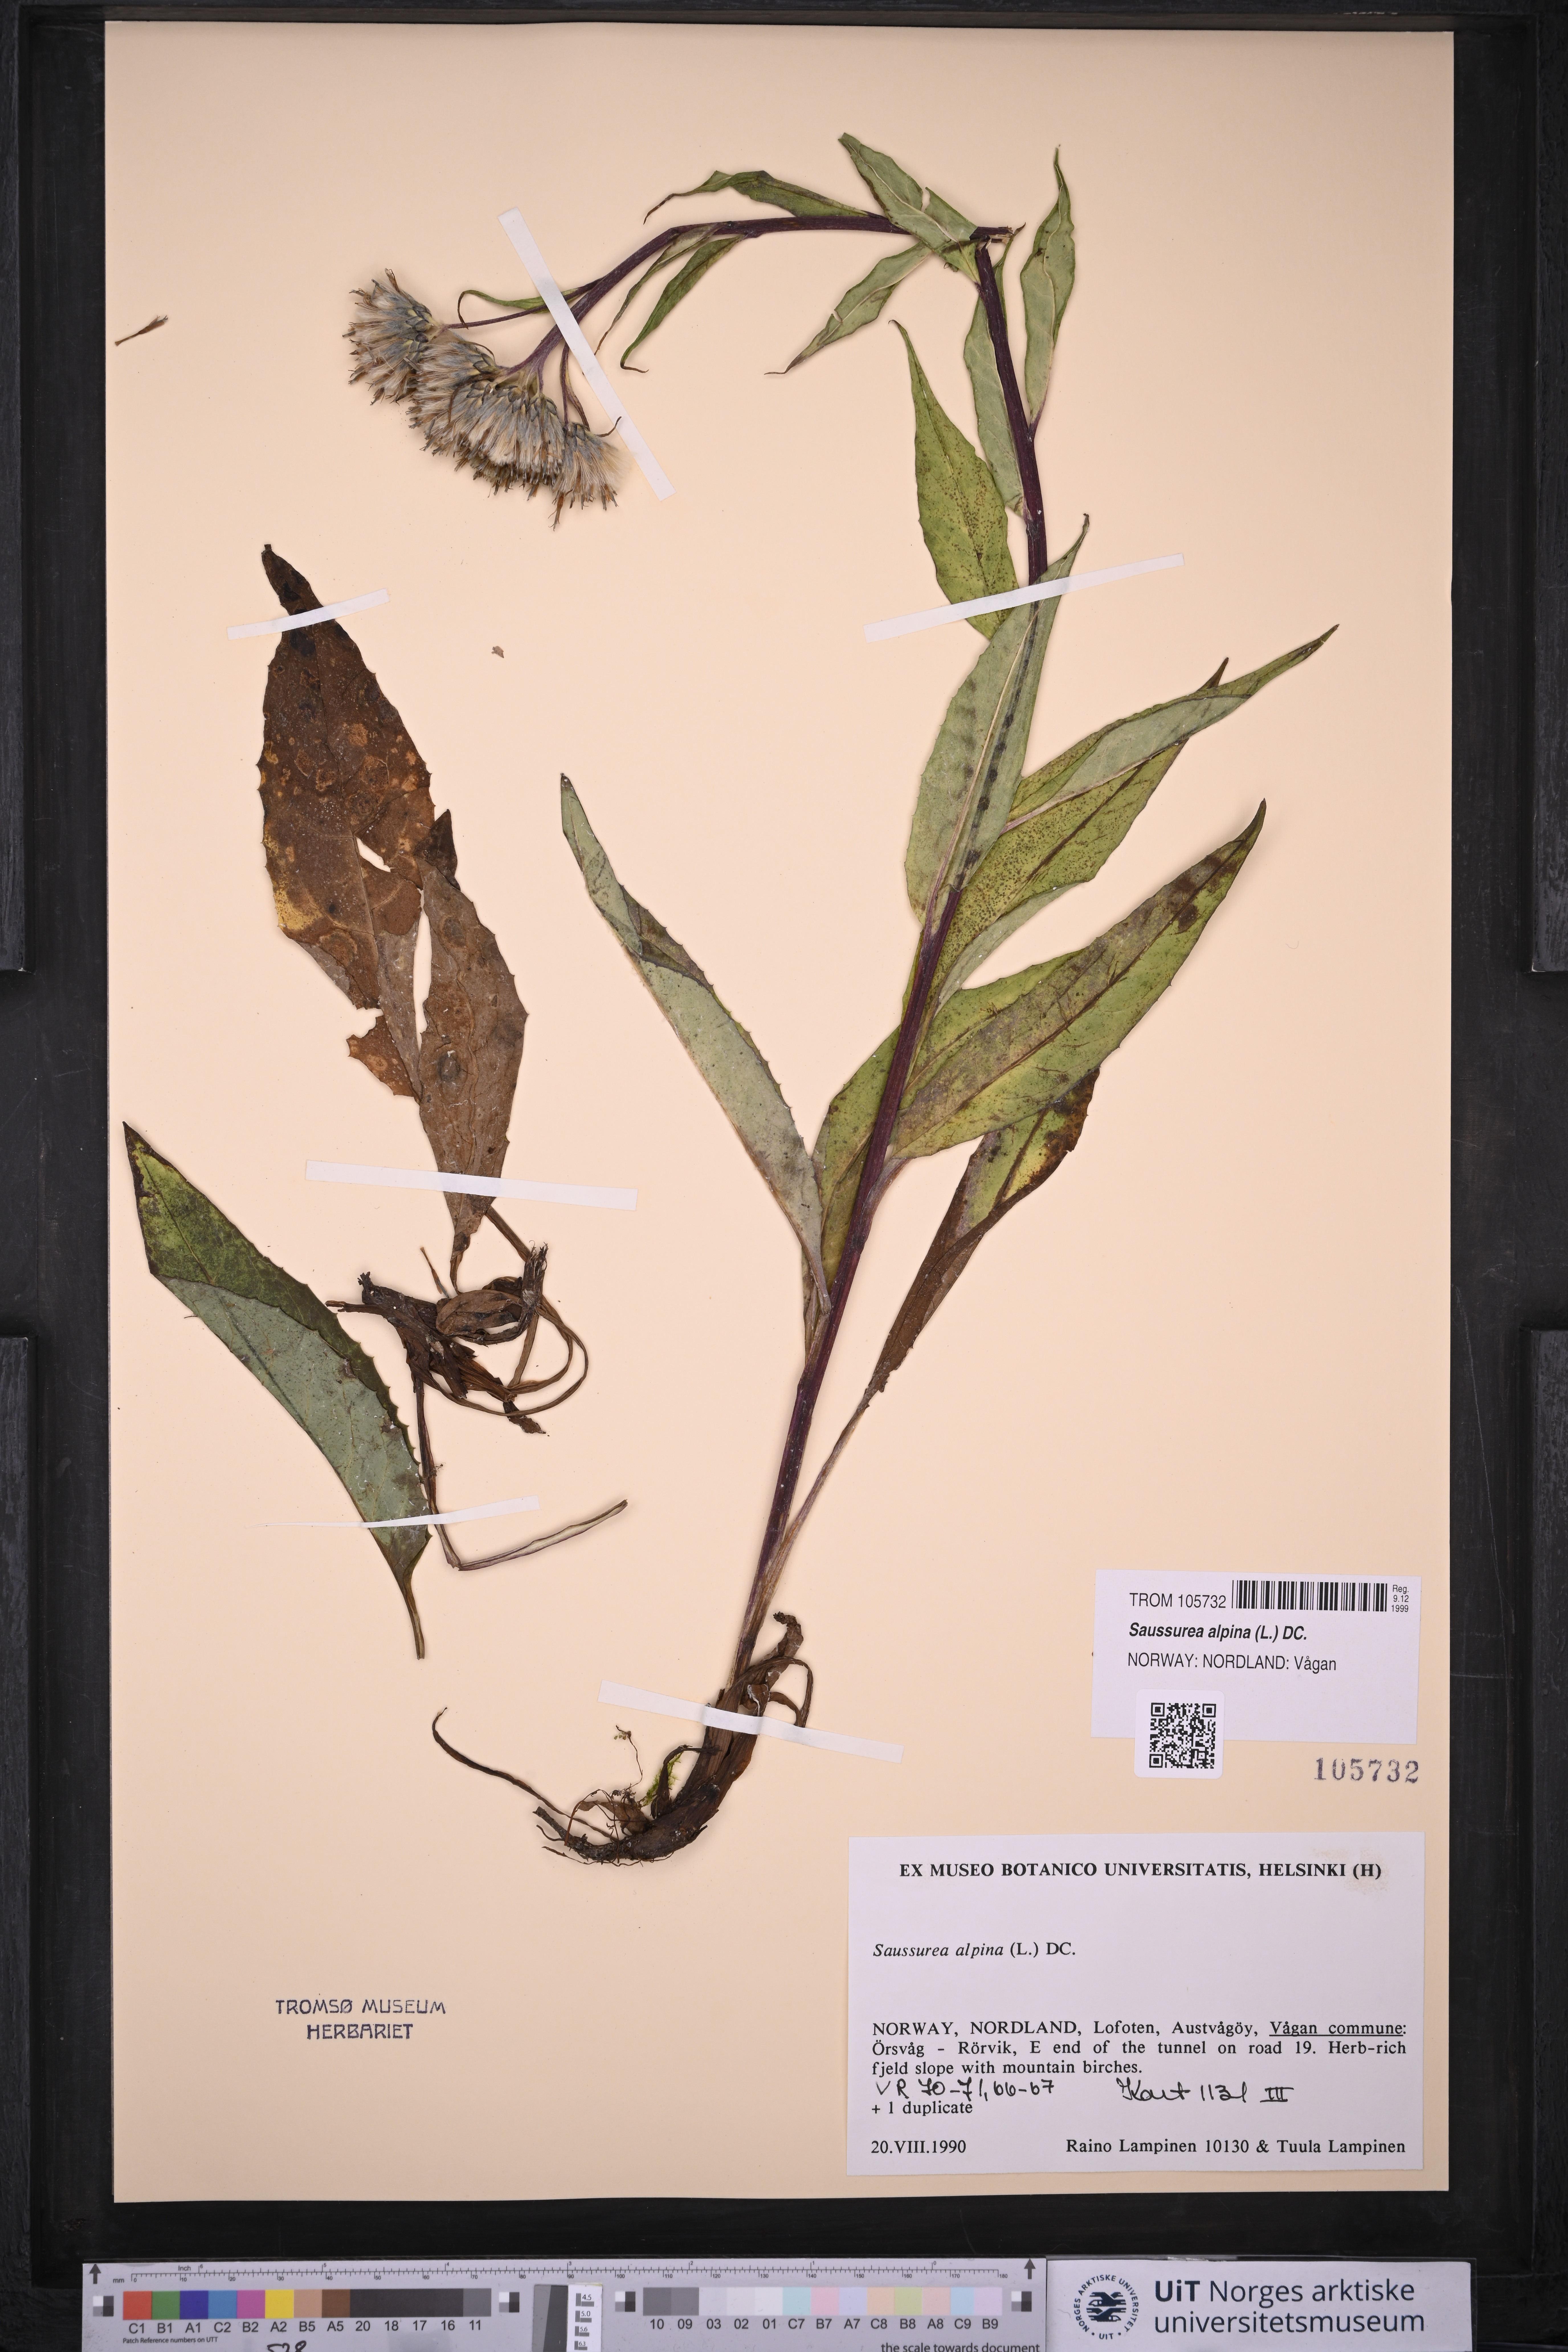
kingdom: Plantae
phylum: Tracheophyta
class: Magnoliopsida
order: Asterales
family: Asteraceae
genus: Saussurea
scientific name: Saussurea alpina
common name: Alpine saw-wort
